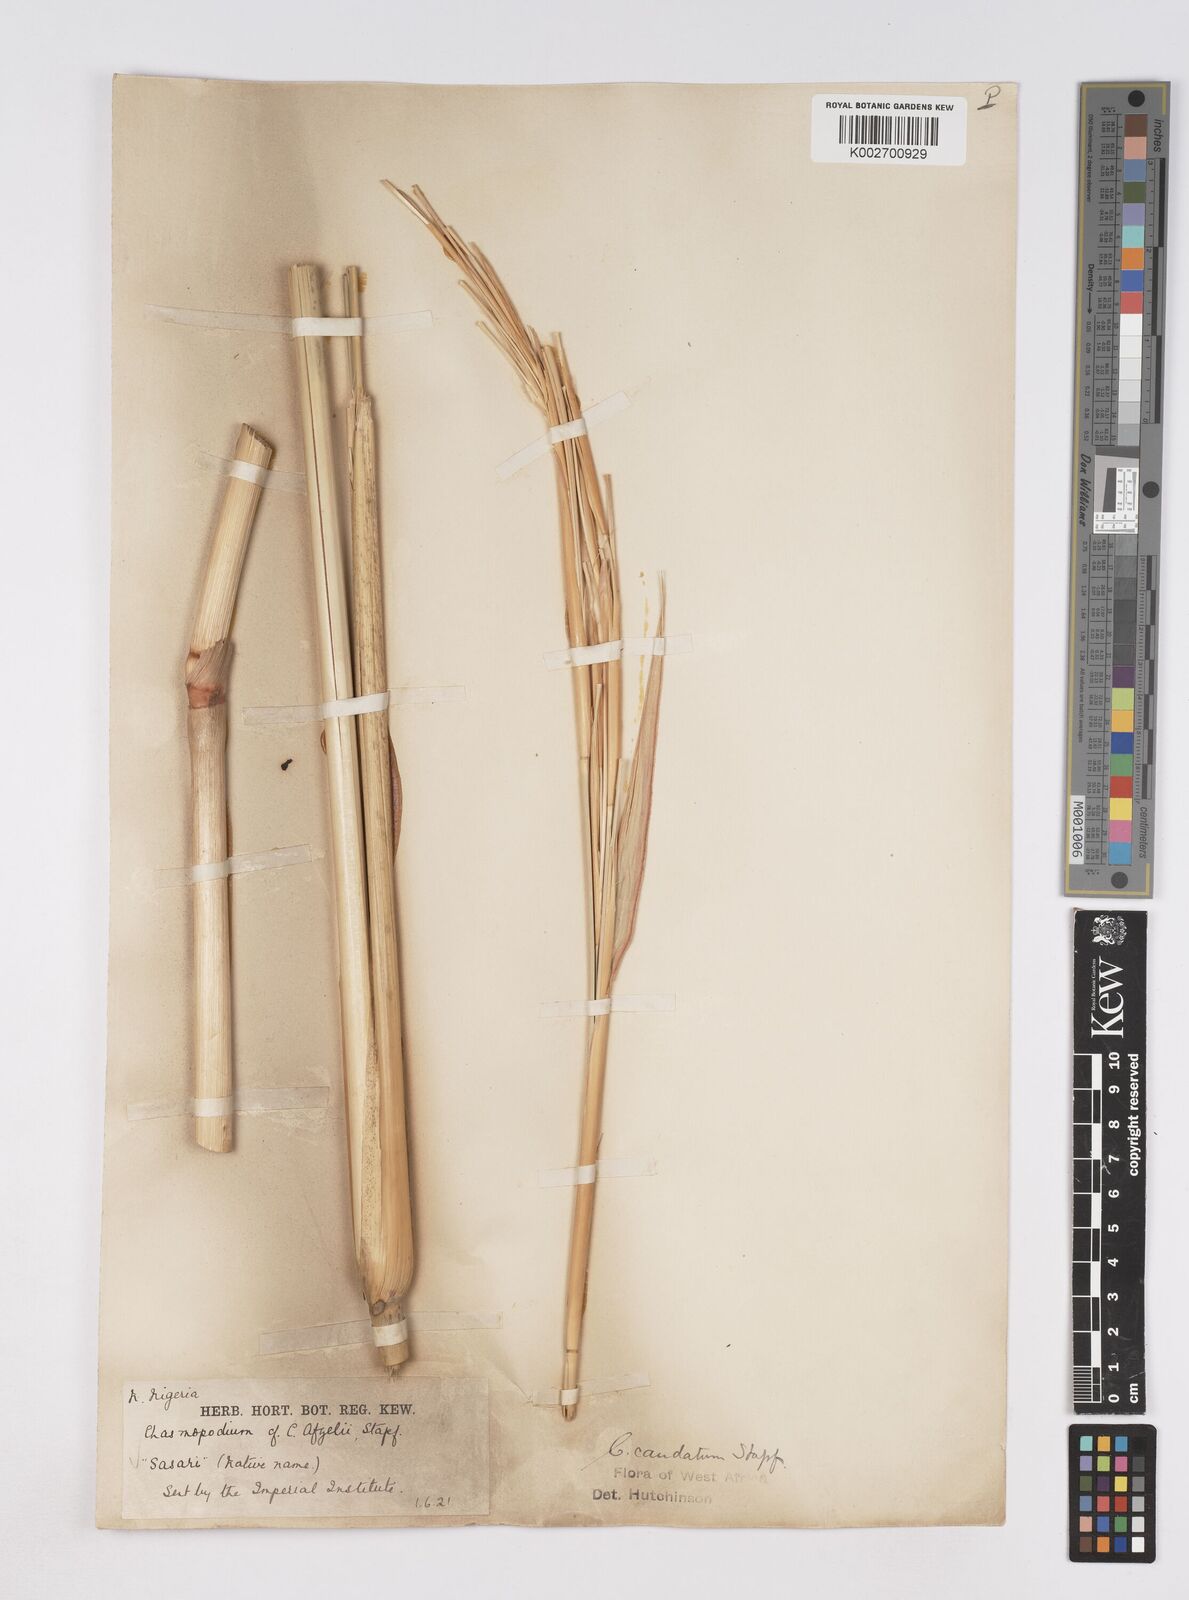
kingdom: Plantae
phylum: Tracheophyta
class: Liliopsida
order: Poales
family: Poaceae
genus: Chasmopodium
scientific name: Chasmopodium caudatum
